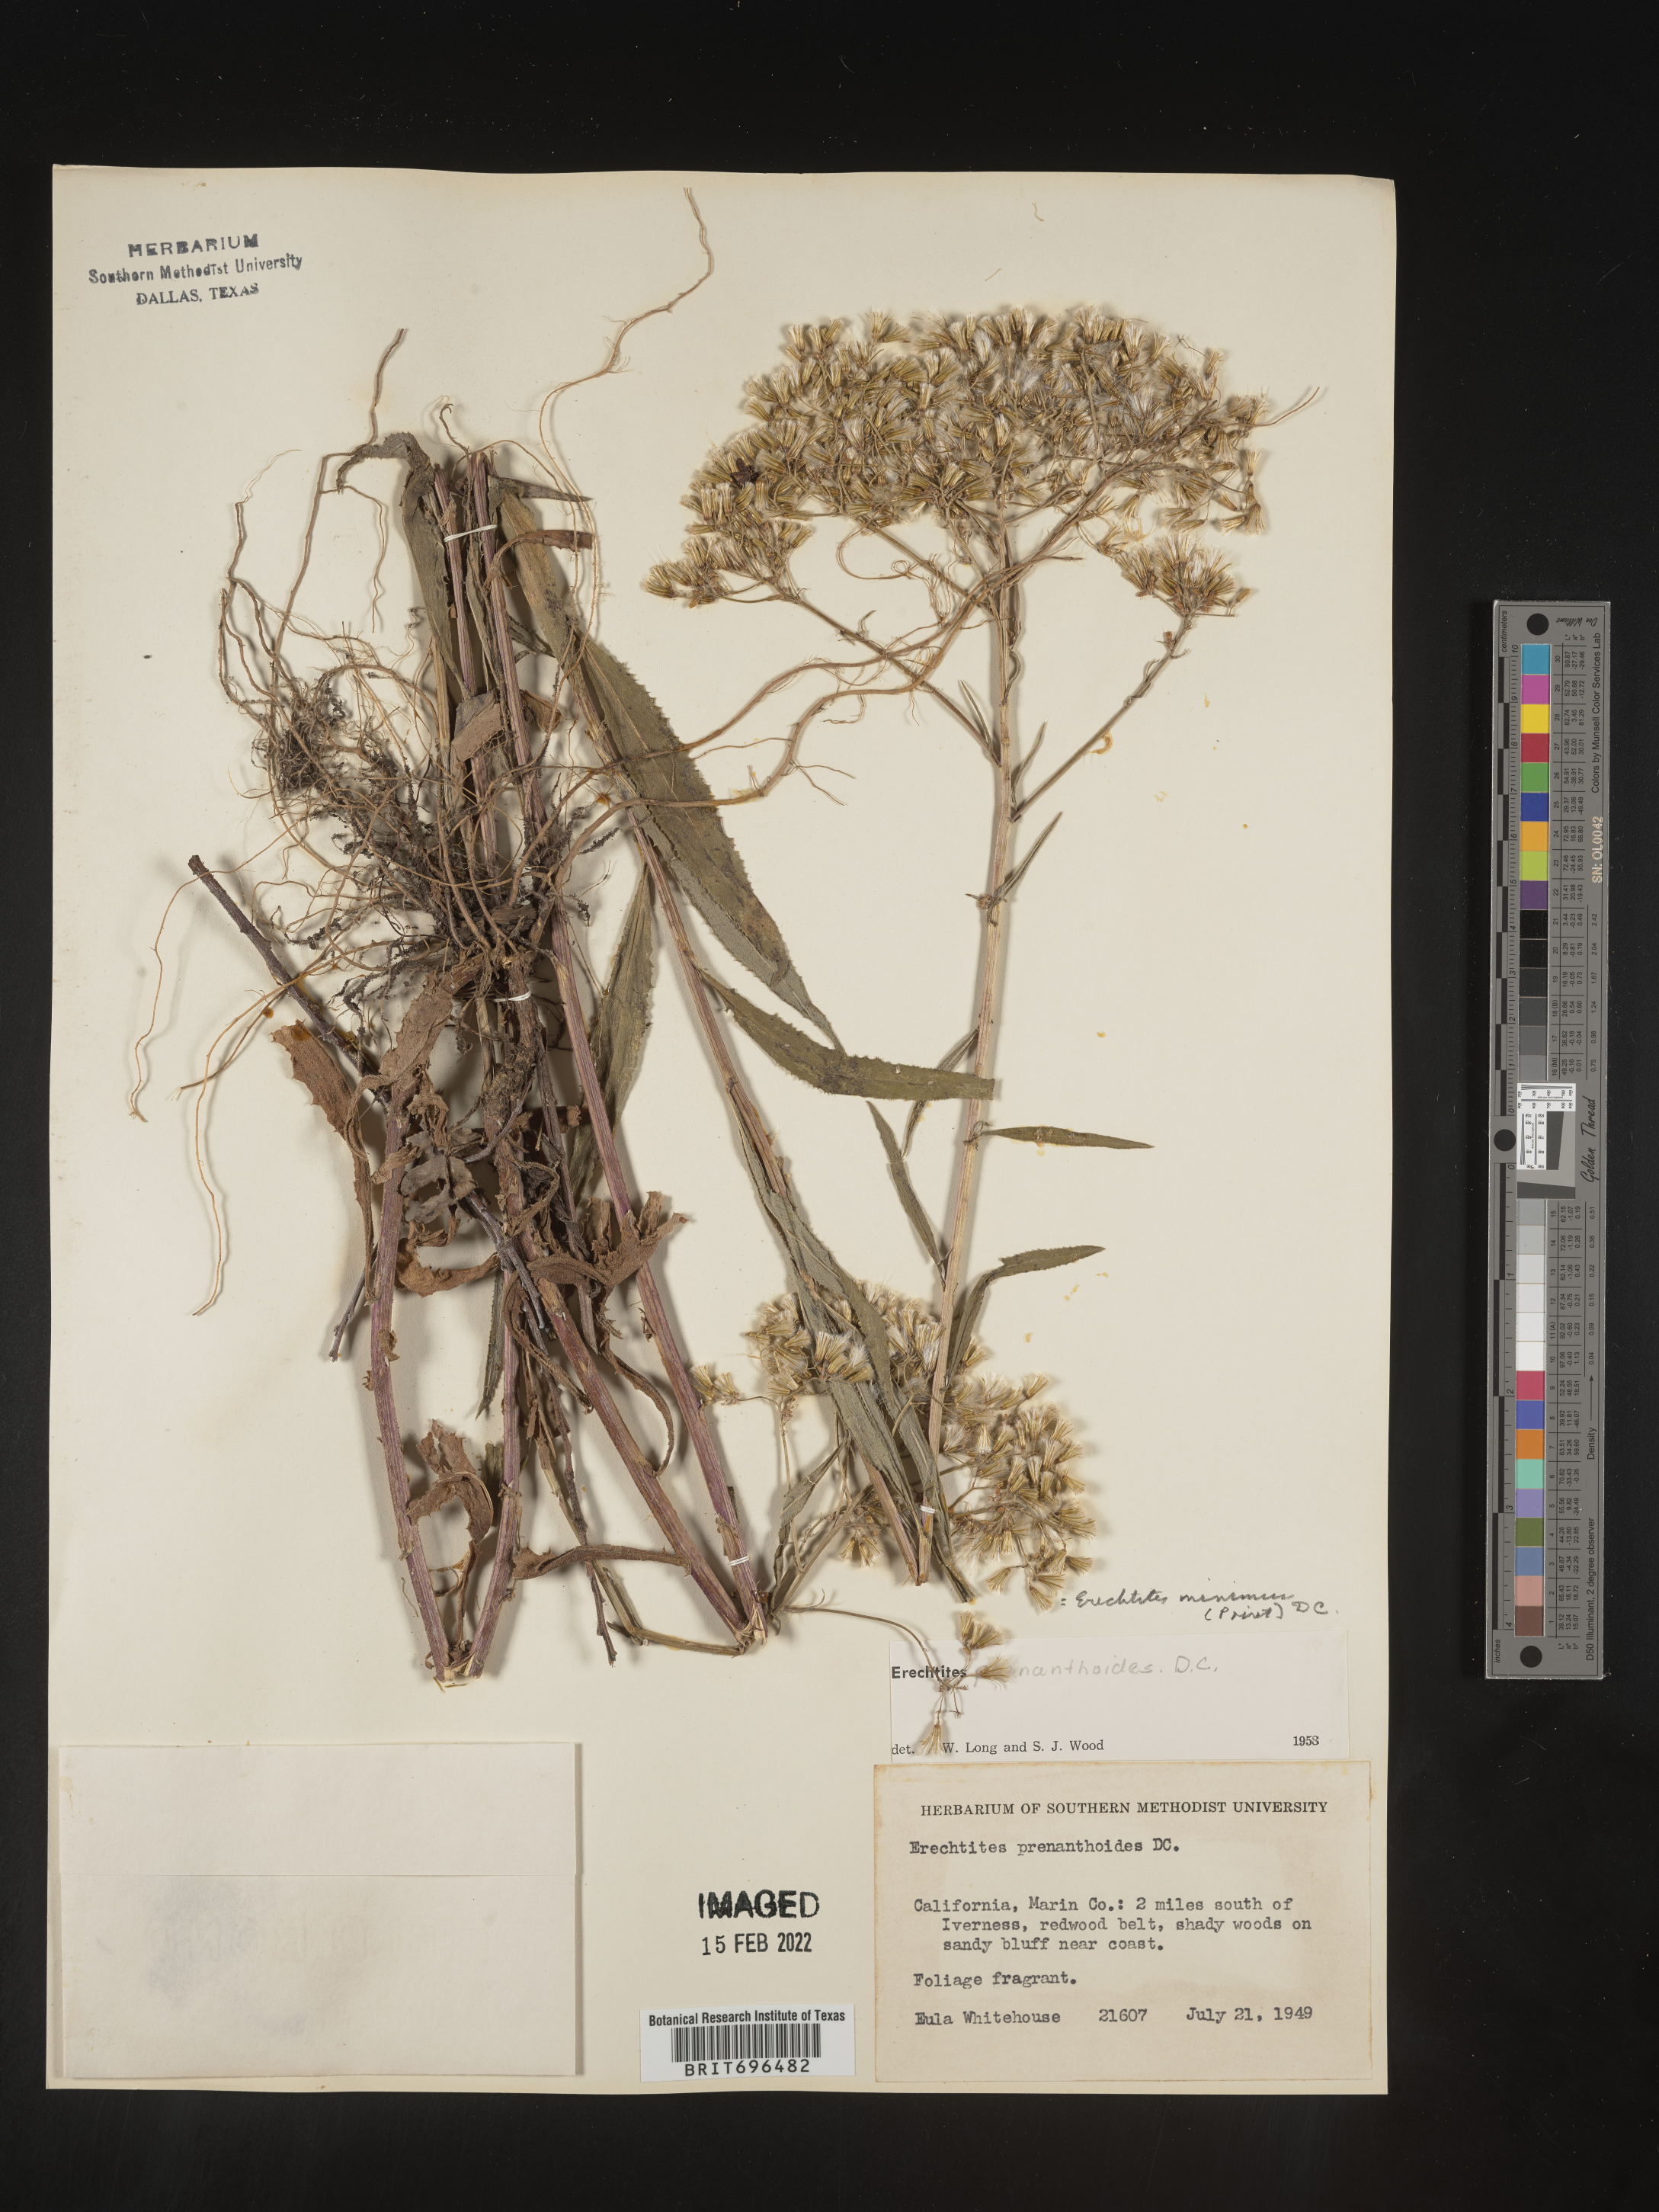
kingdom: Plantae
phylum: Tracheophyta
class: Magnoliopsida
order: Asterales
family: Asteraceae
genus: Senecio
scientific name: Senecio minimus
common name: Toothed fireweed
